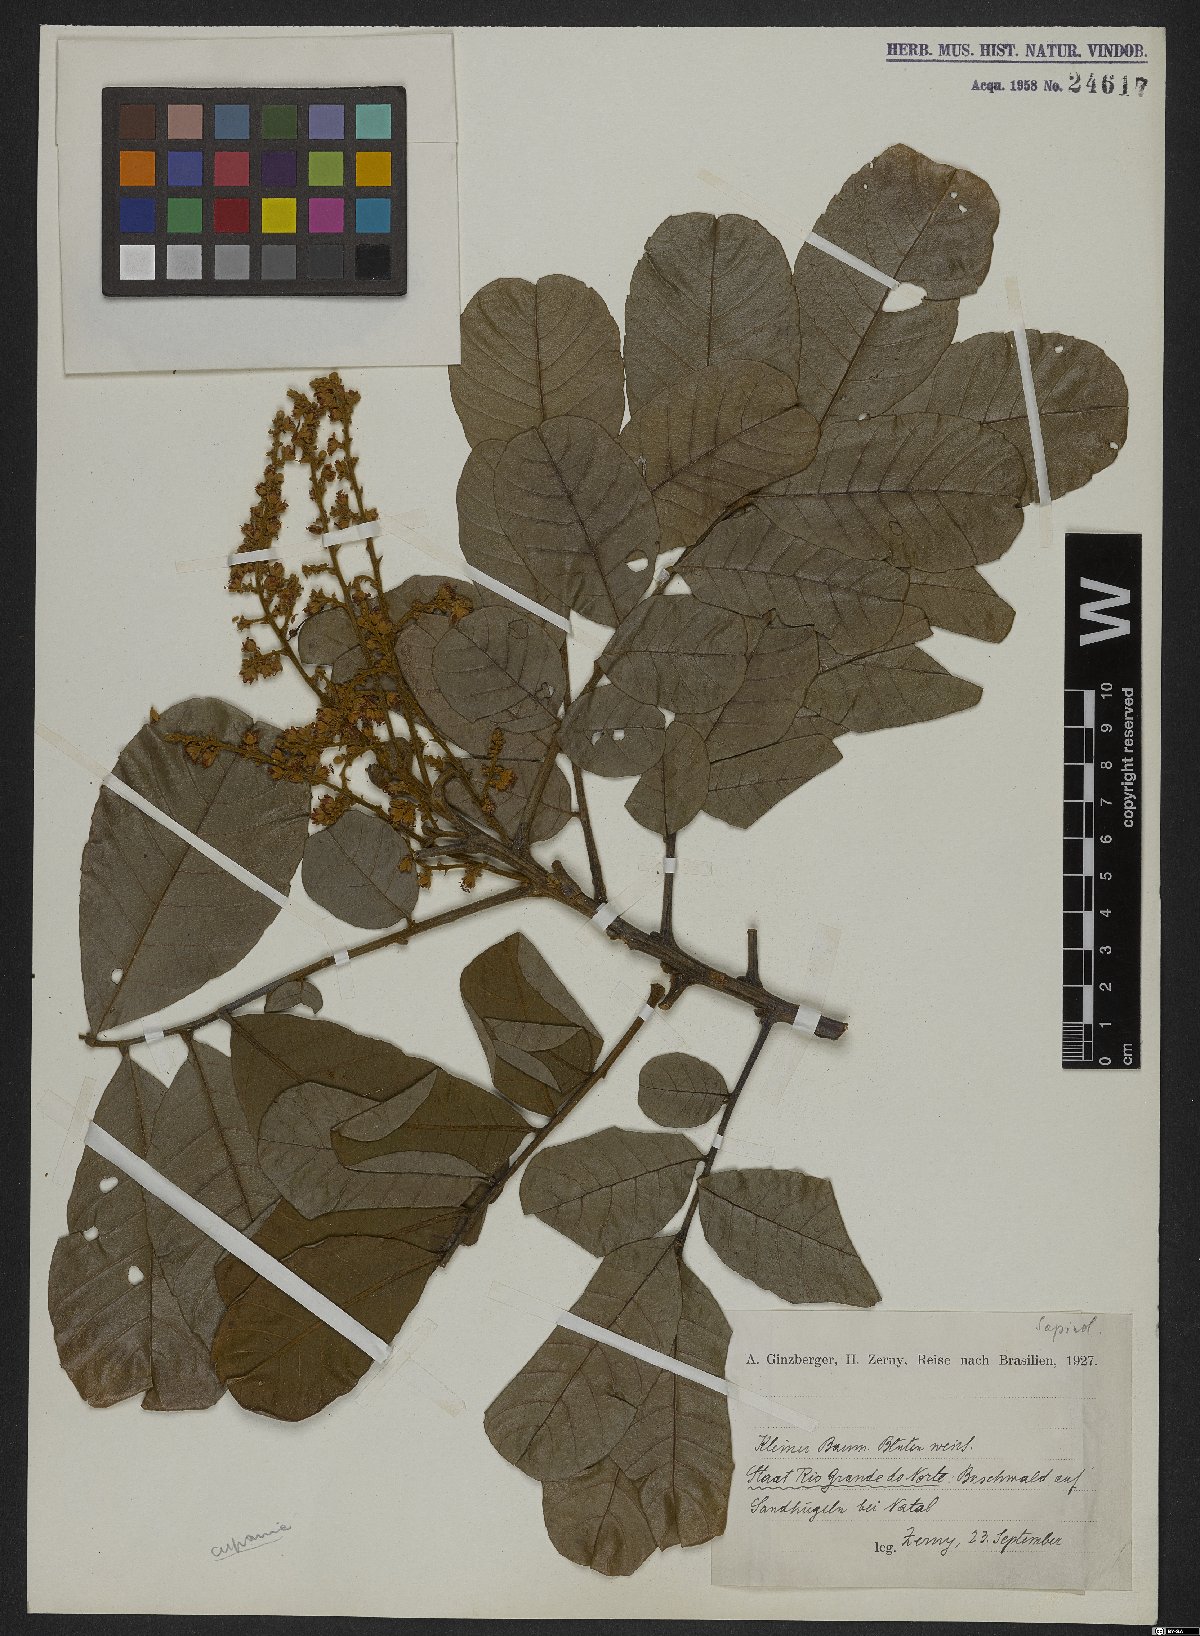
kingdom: Plantae
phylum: Tracheophyta
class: Magnoliopsida
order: Sapindales
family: Sapindaceae
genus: Cupania
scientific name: Cupania
